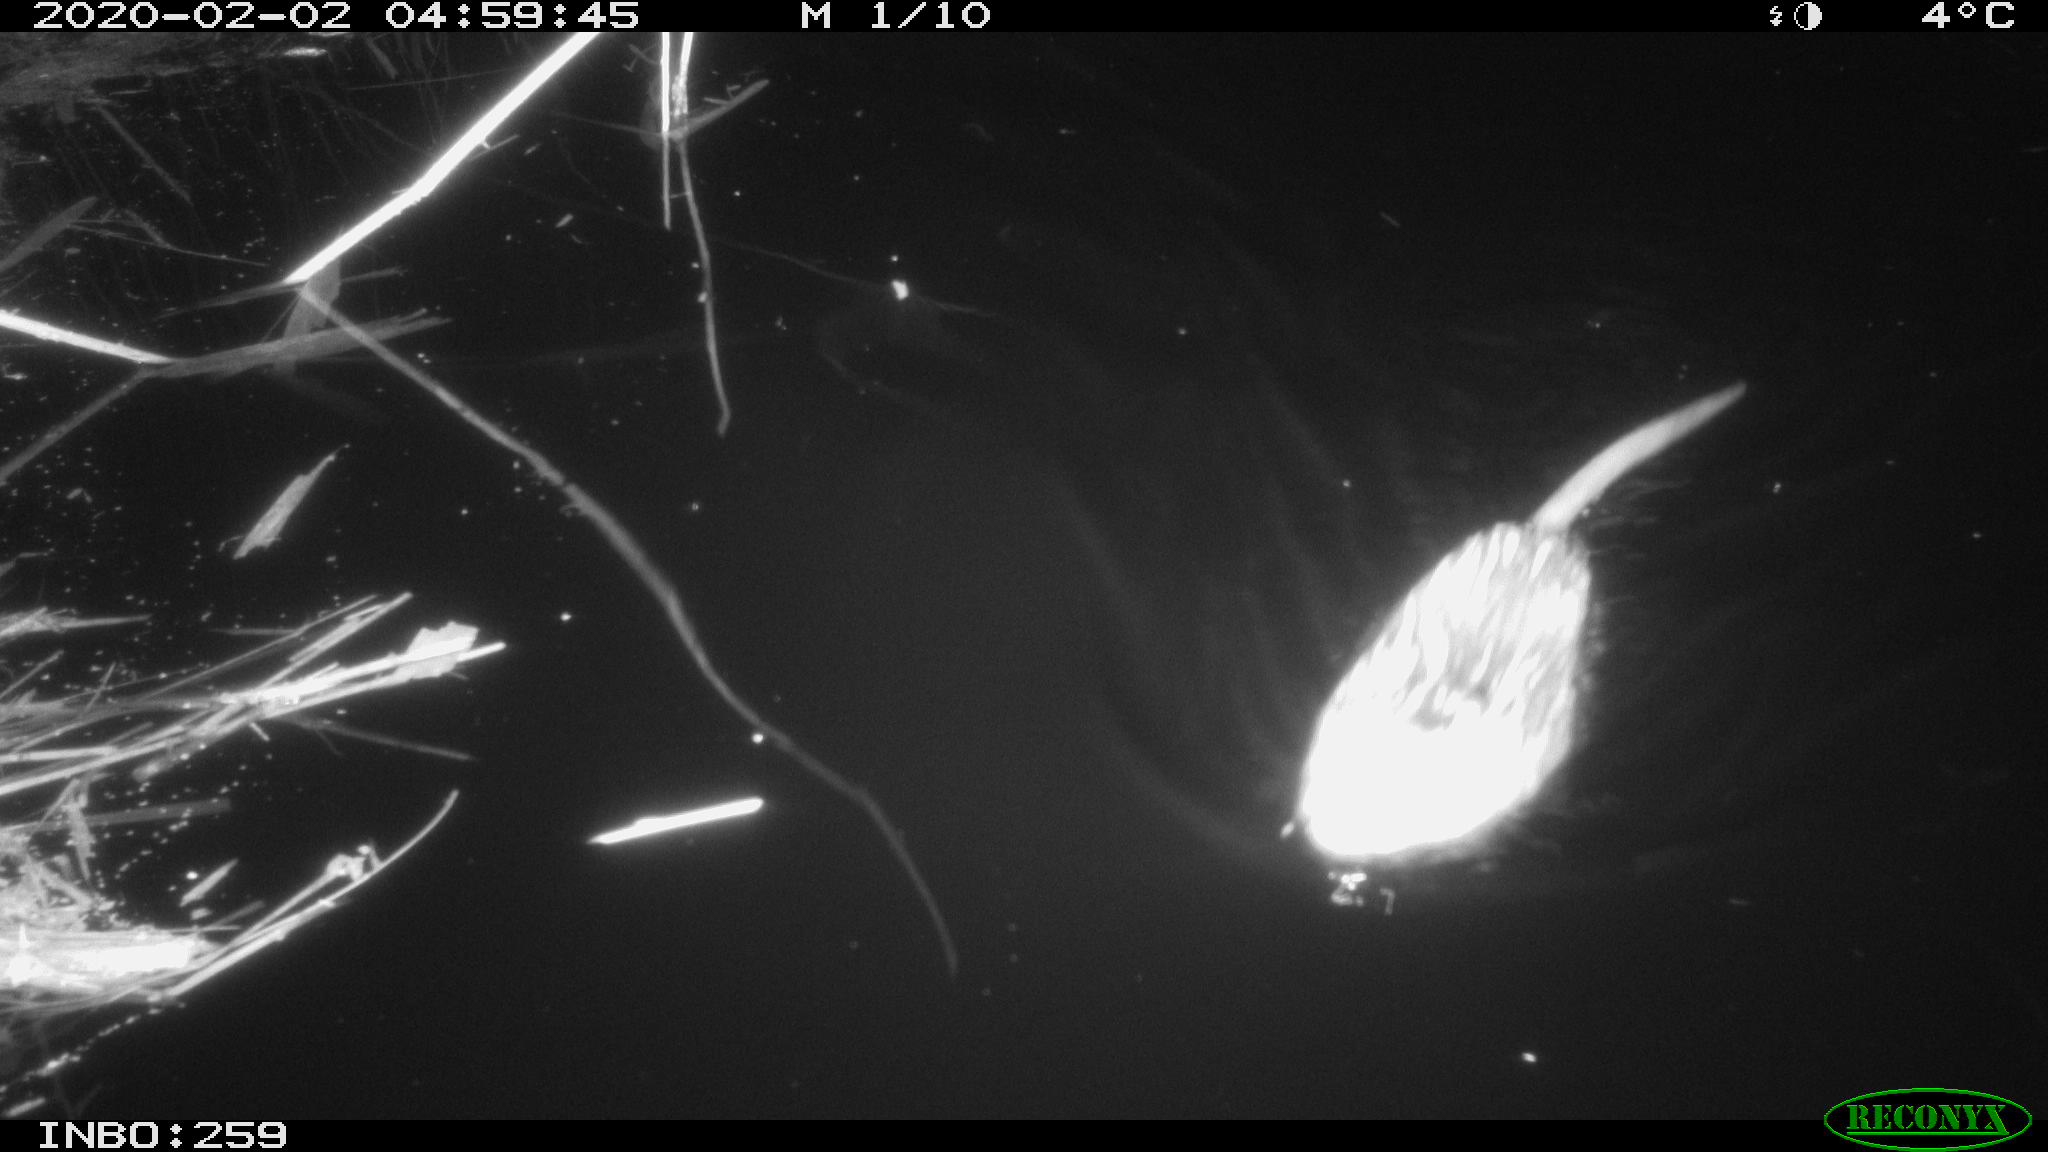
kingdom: Animalia
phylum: Chordata
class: Mammalia
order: Rodentia
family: Cricetidae
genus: Ondatra
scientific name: Ondatra zibethicus
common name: Muskrat
